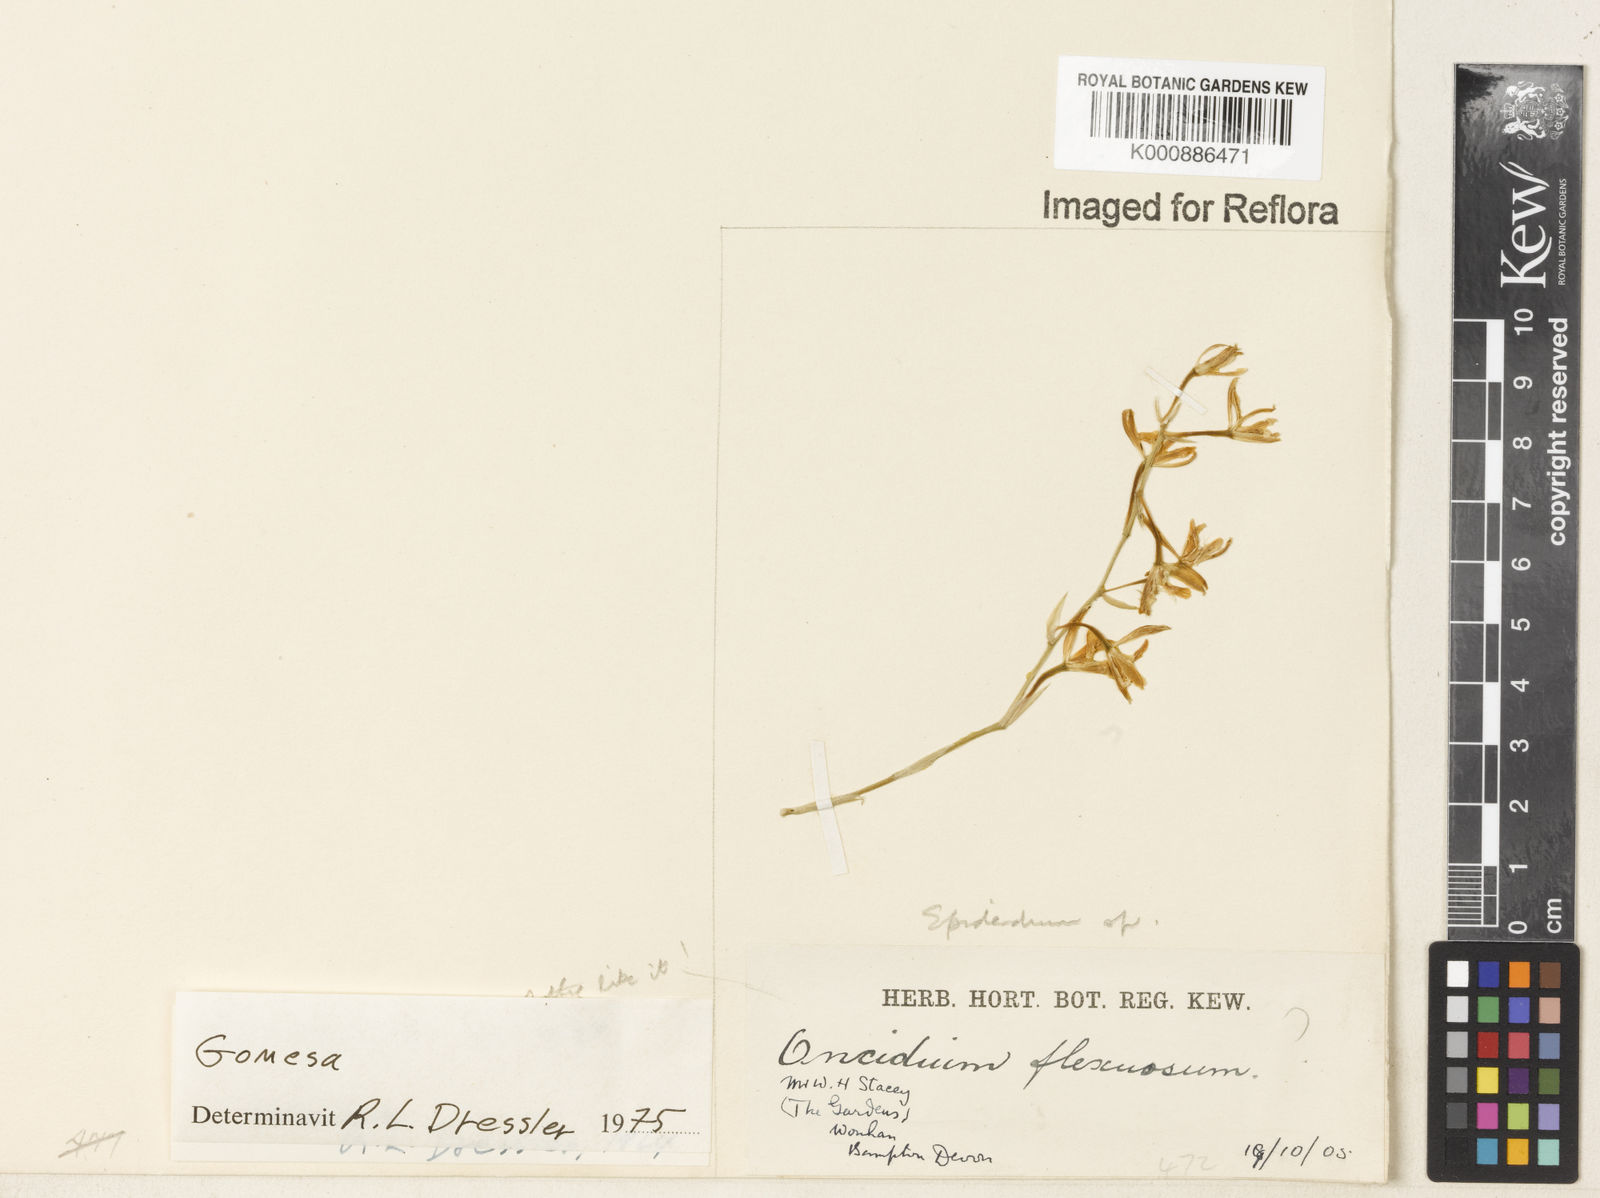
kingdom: Plantae
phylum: Tracheophyta
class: Liliopsida
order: Asparagales
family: Orchidaceae
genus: Gomesa
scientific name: Gomesa recurva
